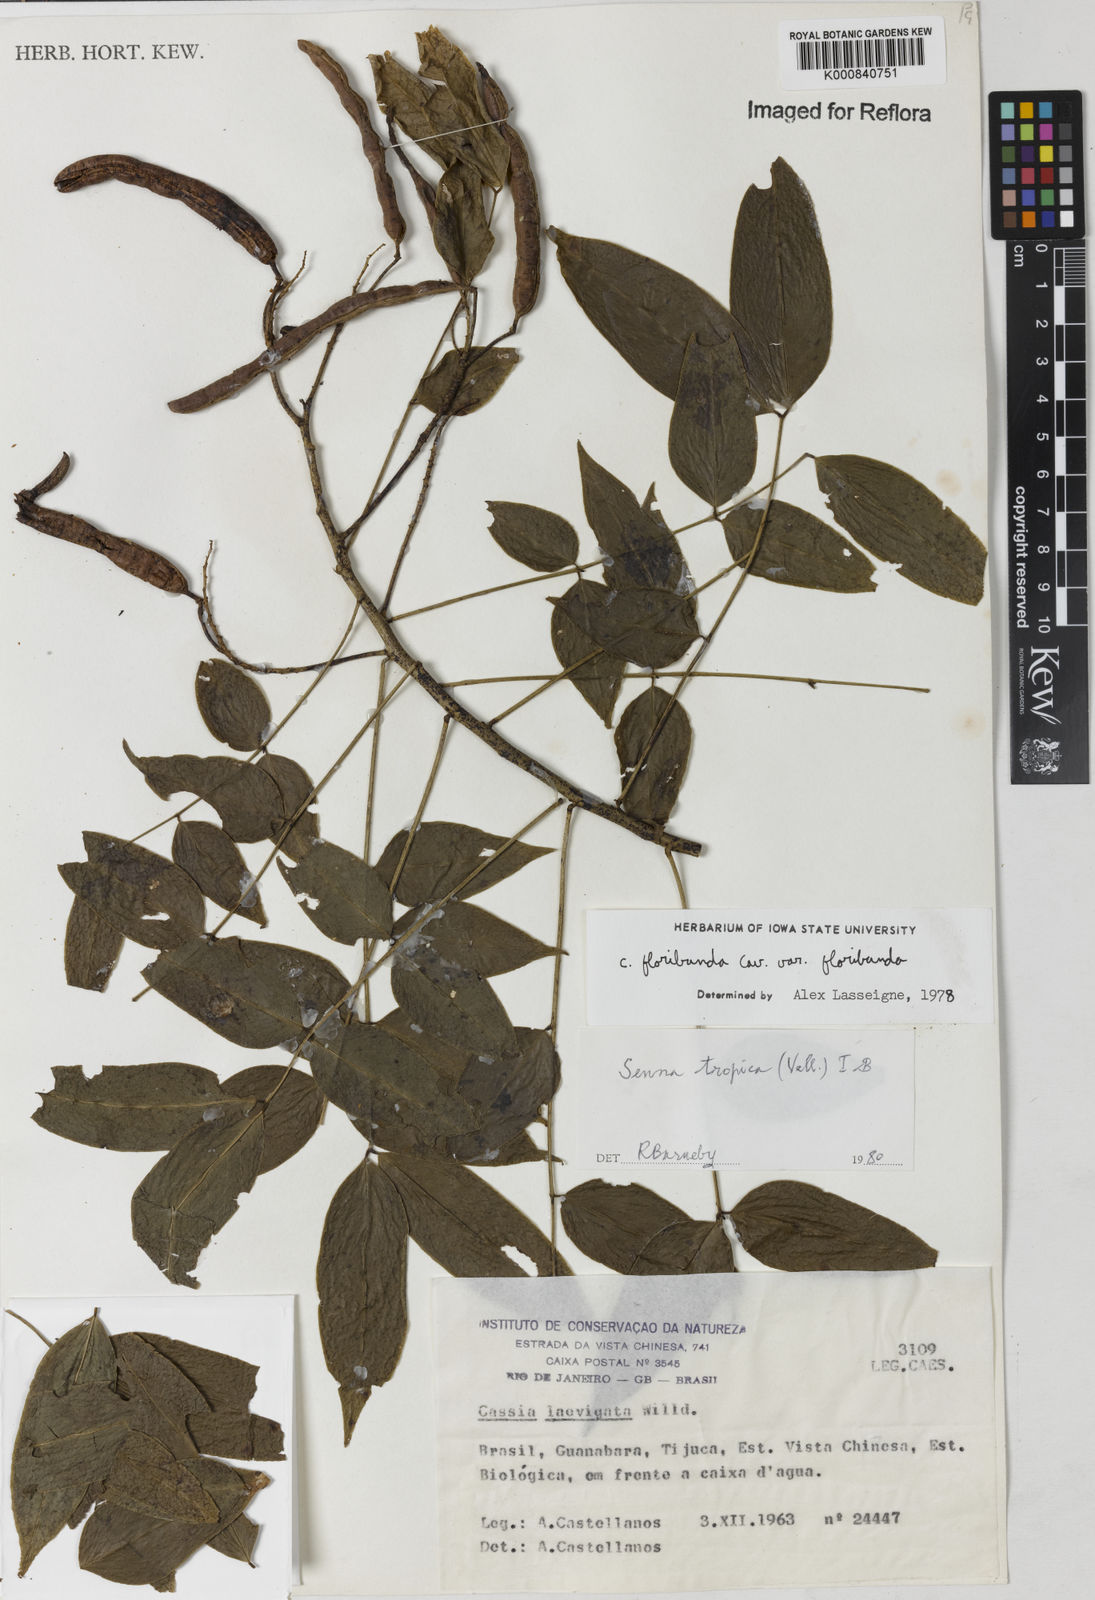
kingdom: Plantae
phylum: Tracheophyta
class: Magnoliopsida
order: Fabales
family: Fabaceae
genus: Senna
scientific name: Senna tropica
